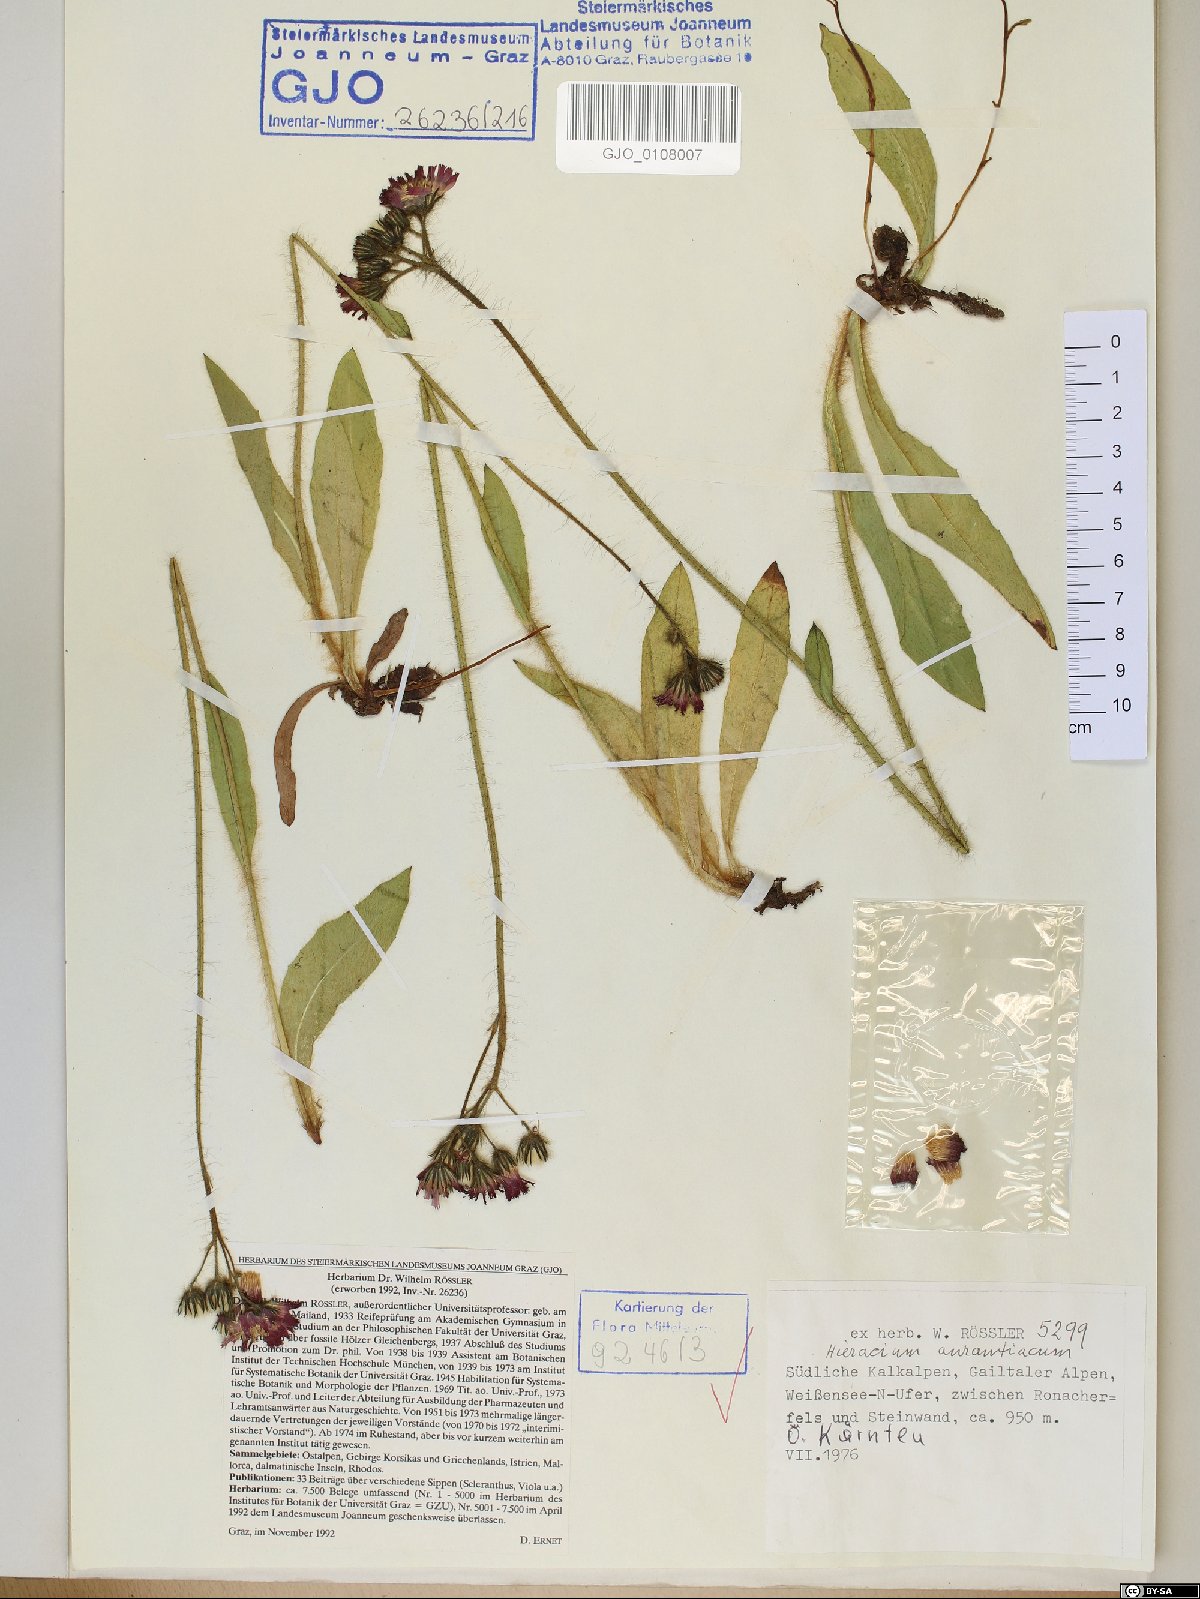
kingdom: Plantae
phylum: Tracheophyta
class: Magnoliopsida
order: Asterales
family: Asteraceae
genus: Pilosella
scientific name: Pilosella aurantiaca
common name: Fox-and-cubs
